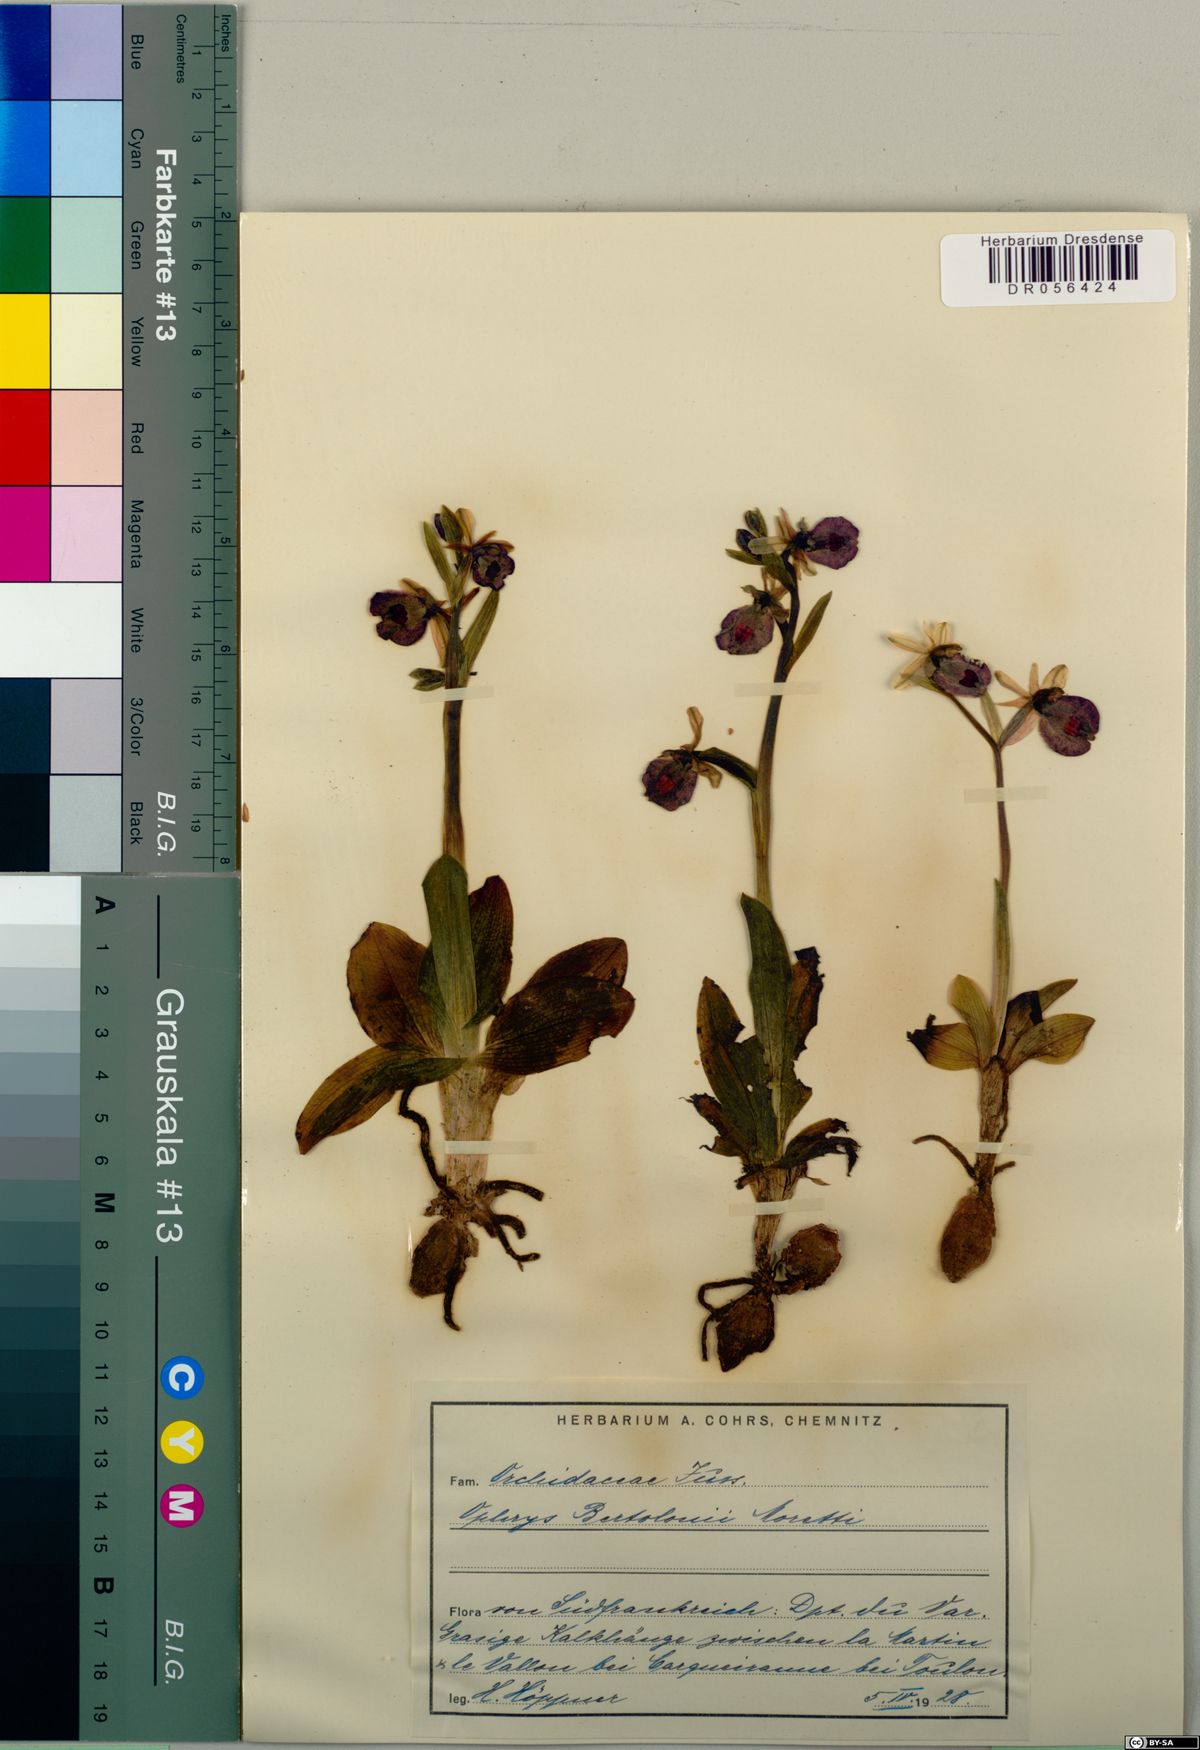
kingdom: Plantae
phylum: Tracheophyta
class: Liliopsida
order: Asparagales
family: Orchidaceae
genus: Ophrys
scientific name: Ophrys bertolonii
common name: Bertoloni's bee orchid
